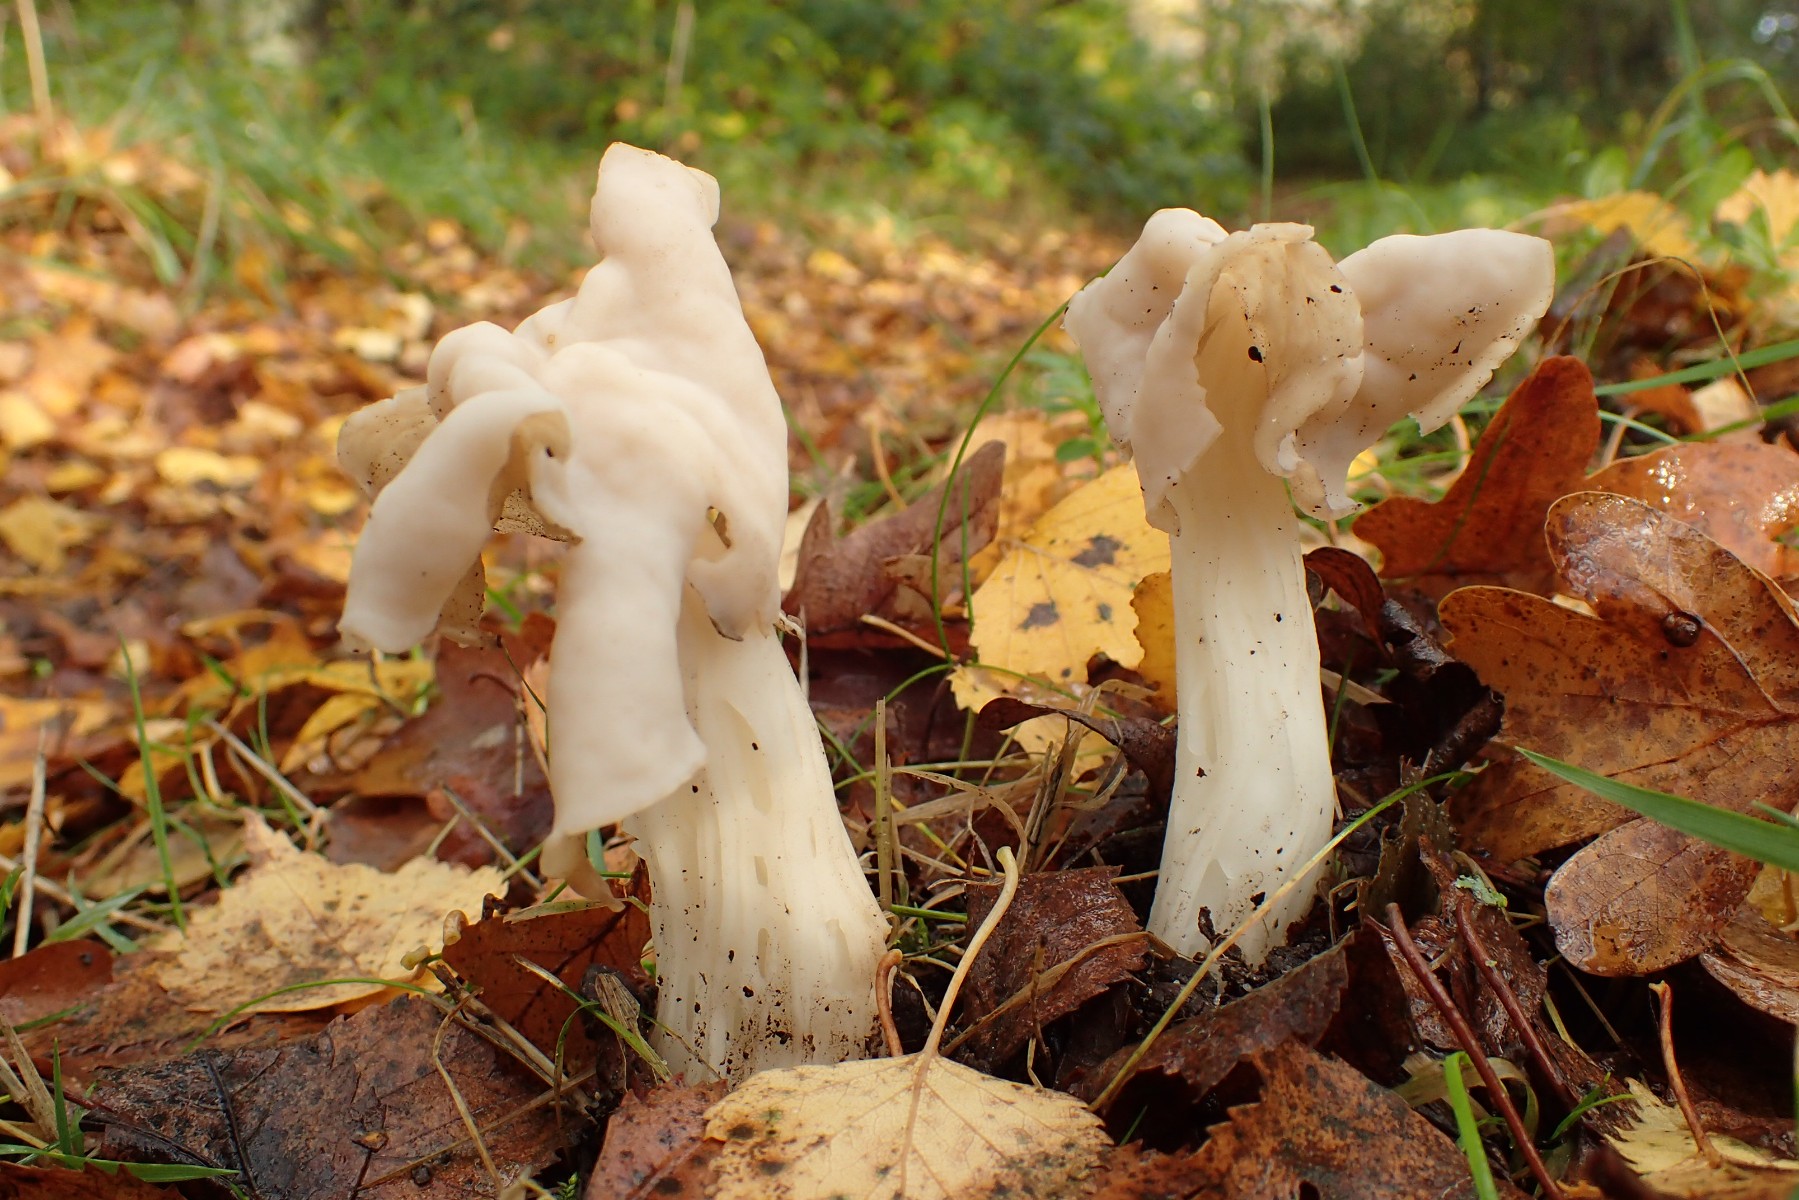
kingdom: Fungi
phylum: Ascomycota
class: Pezizomycetes
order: Pezizales
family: Helvellaceae
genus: Helvella
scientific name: Helvella crispa
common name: kruset foldhat
